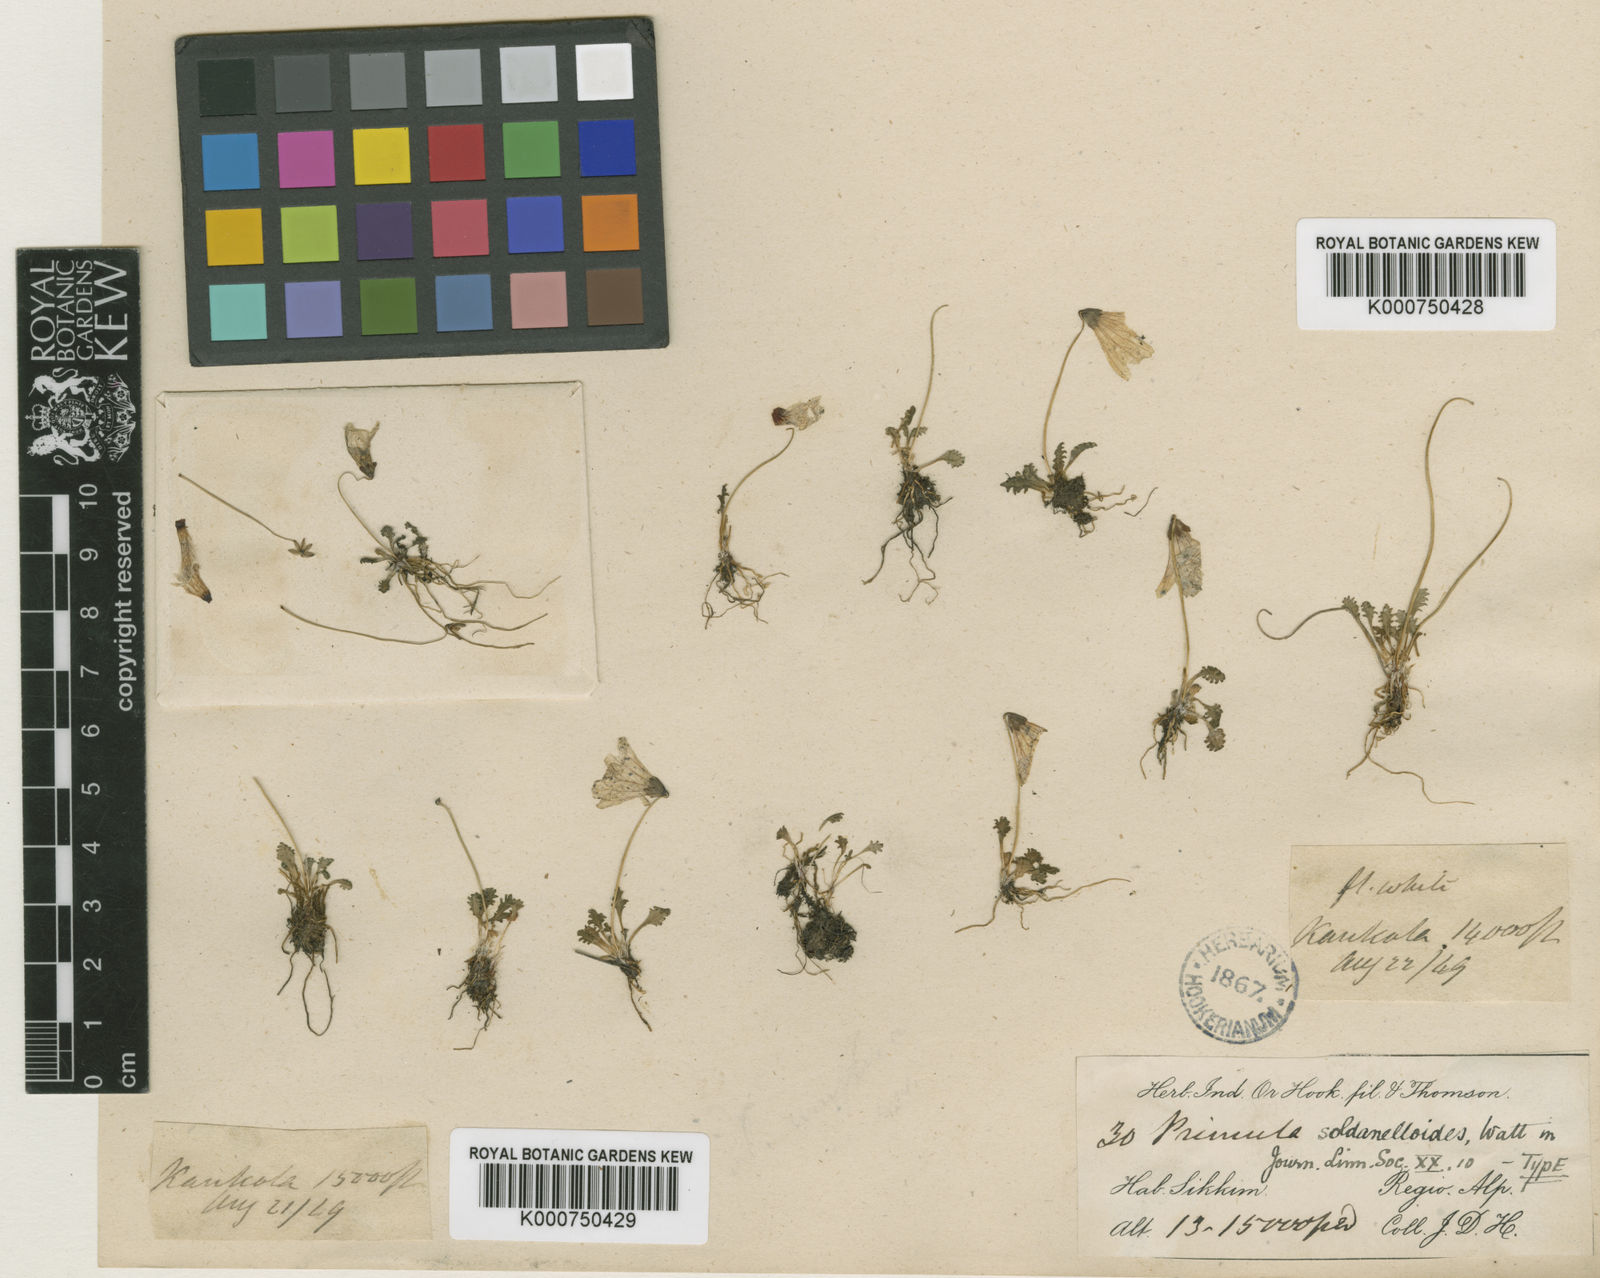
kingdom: Plantae
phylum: Tracheophyta
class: Magnoliopsida
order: Ericales
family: Primulaceae
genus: Primula
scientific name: Primula soldanelloides
